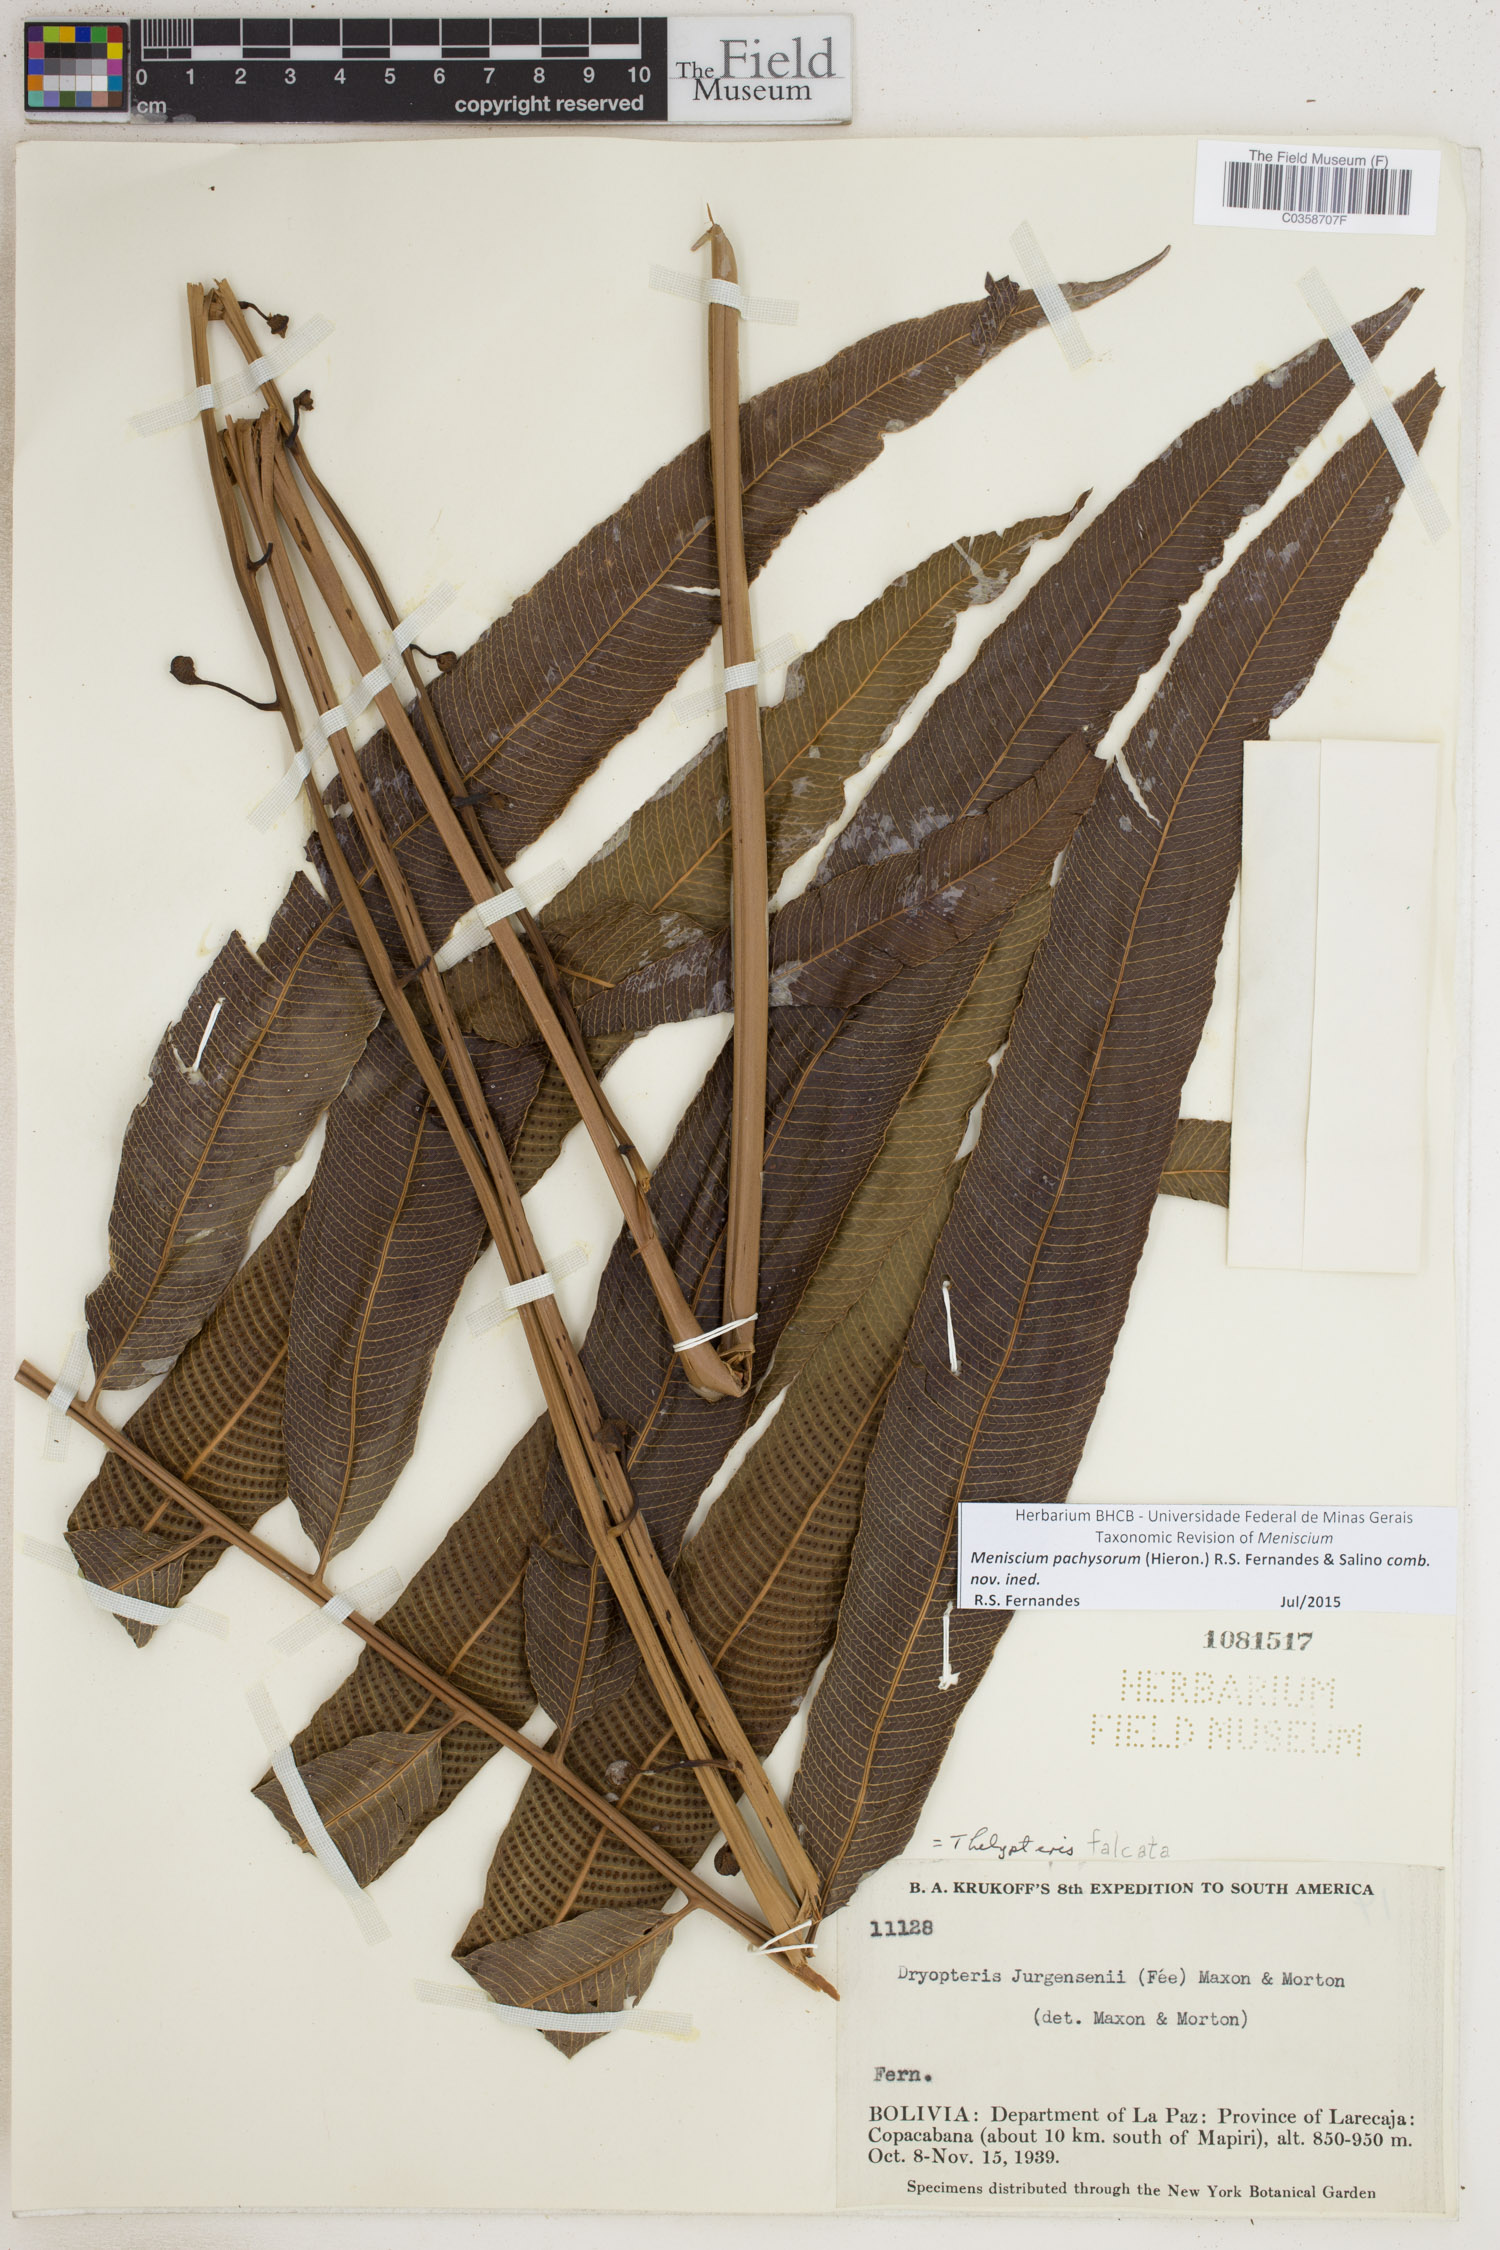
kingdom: Plantae
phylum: Tracheophyta
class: Polypodiopsida
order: Polypodiales
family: Thelypteridaceae
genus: Meniscium
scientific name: Meniscium pachysorum
